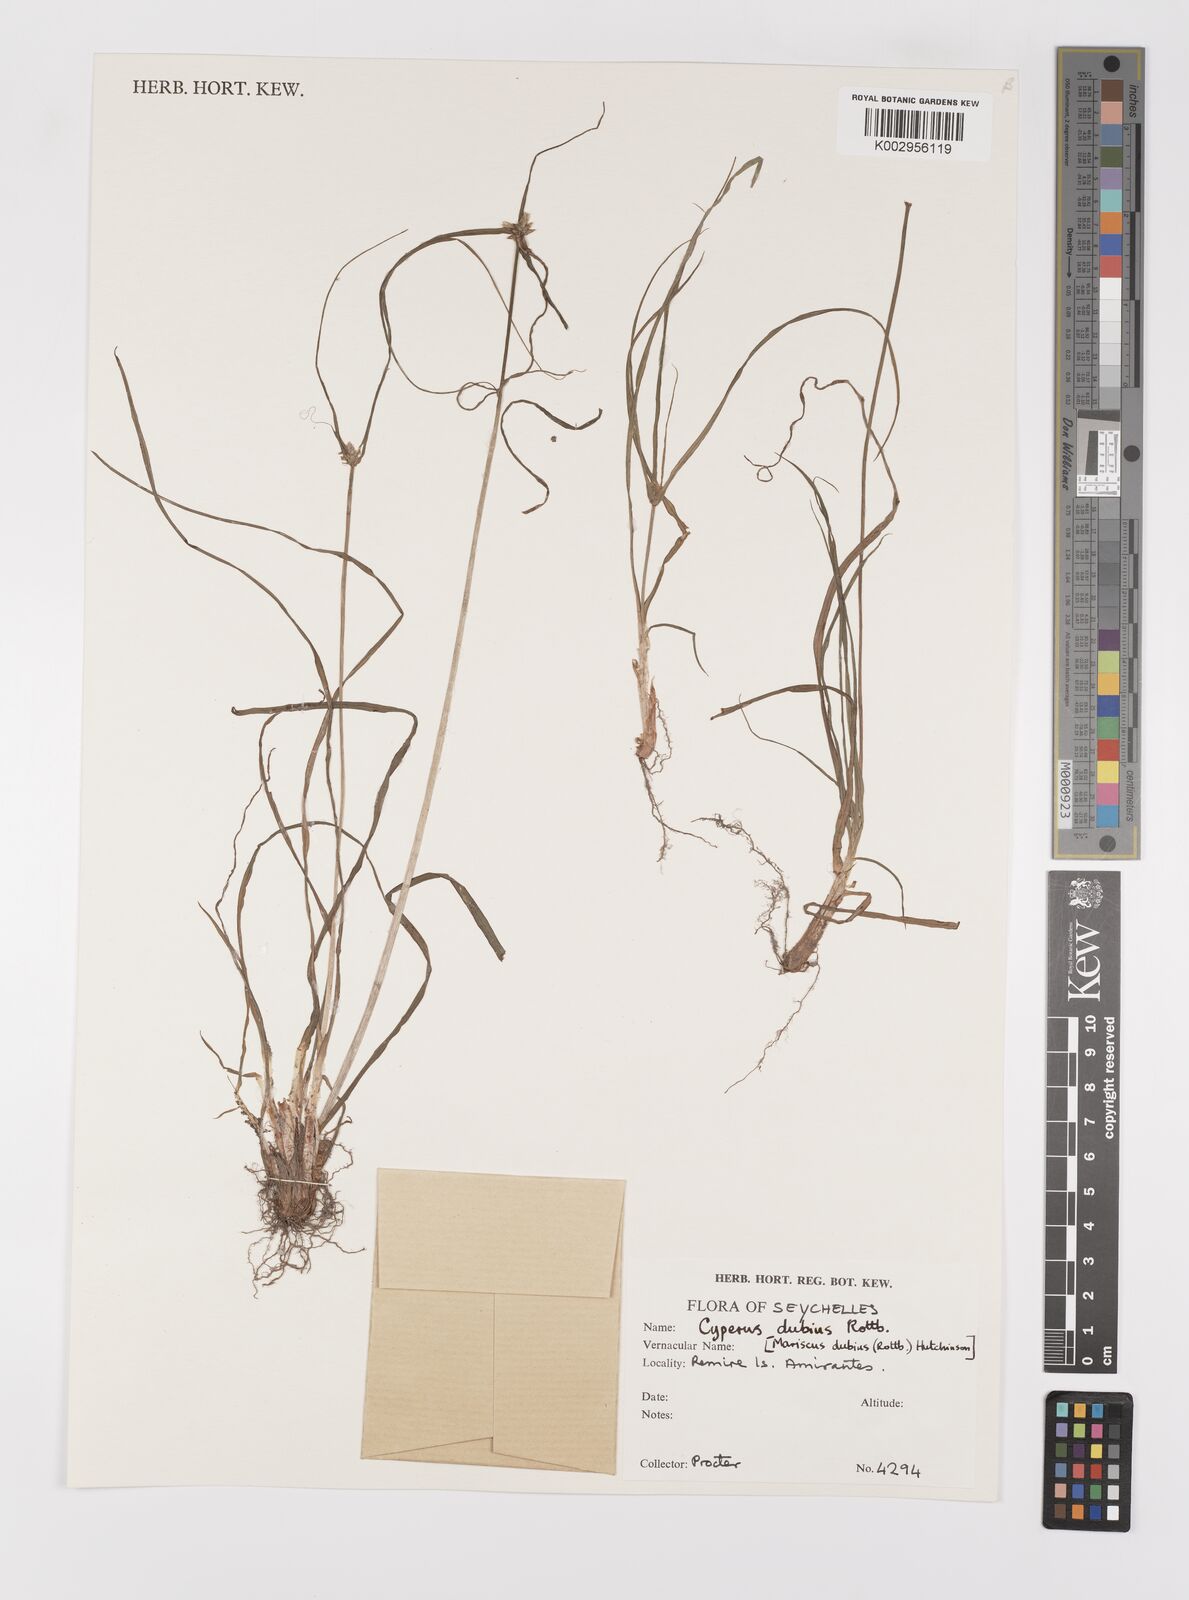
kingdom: Plantae
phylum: Tracheophyta
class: Liliopsida
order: Poales
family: Cyperaceae
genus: Cyperus
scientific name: Cyperus dubius
